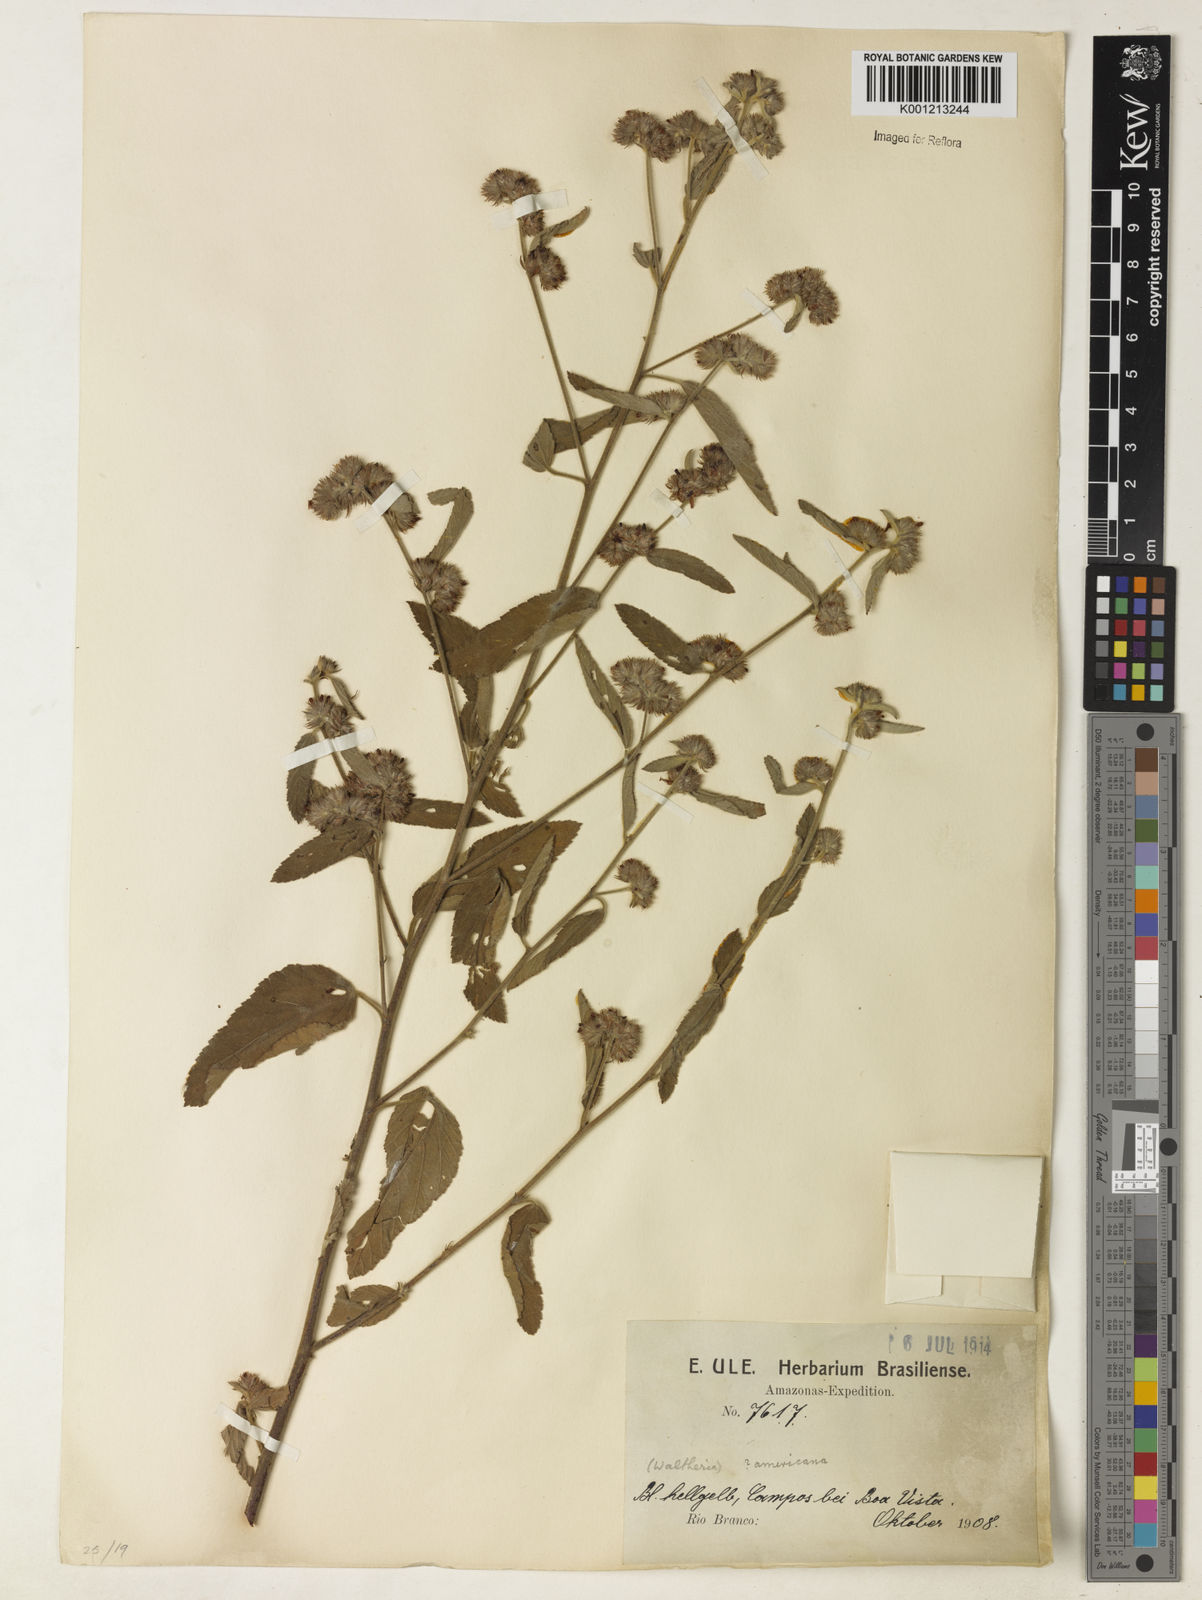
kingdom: Plantae
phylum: Tracheophyta
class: Magnoliopsida
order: Malvales
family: Malvaceae
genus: Waltheria
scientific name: Waltheria indica
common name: Leather-coat
